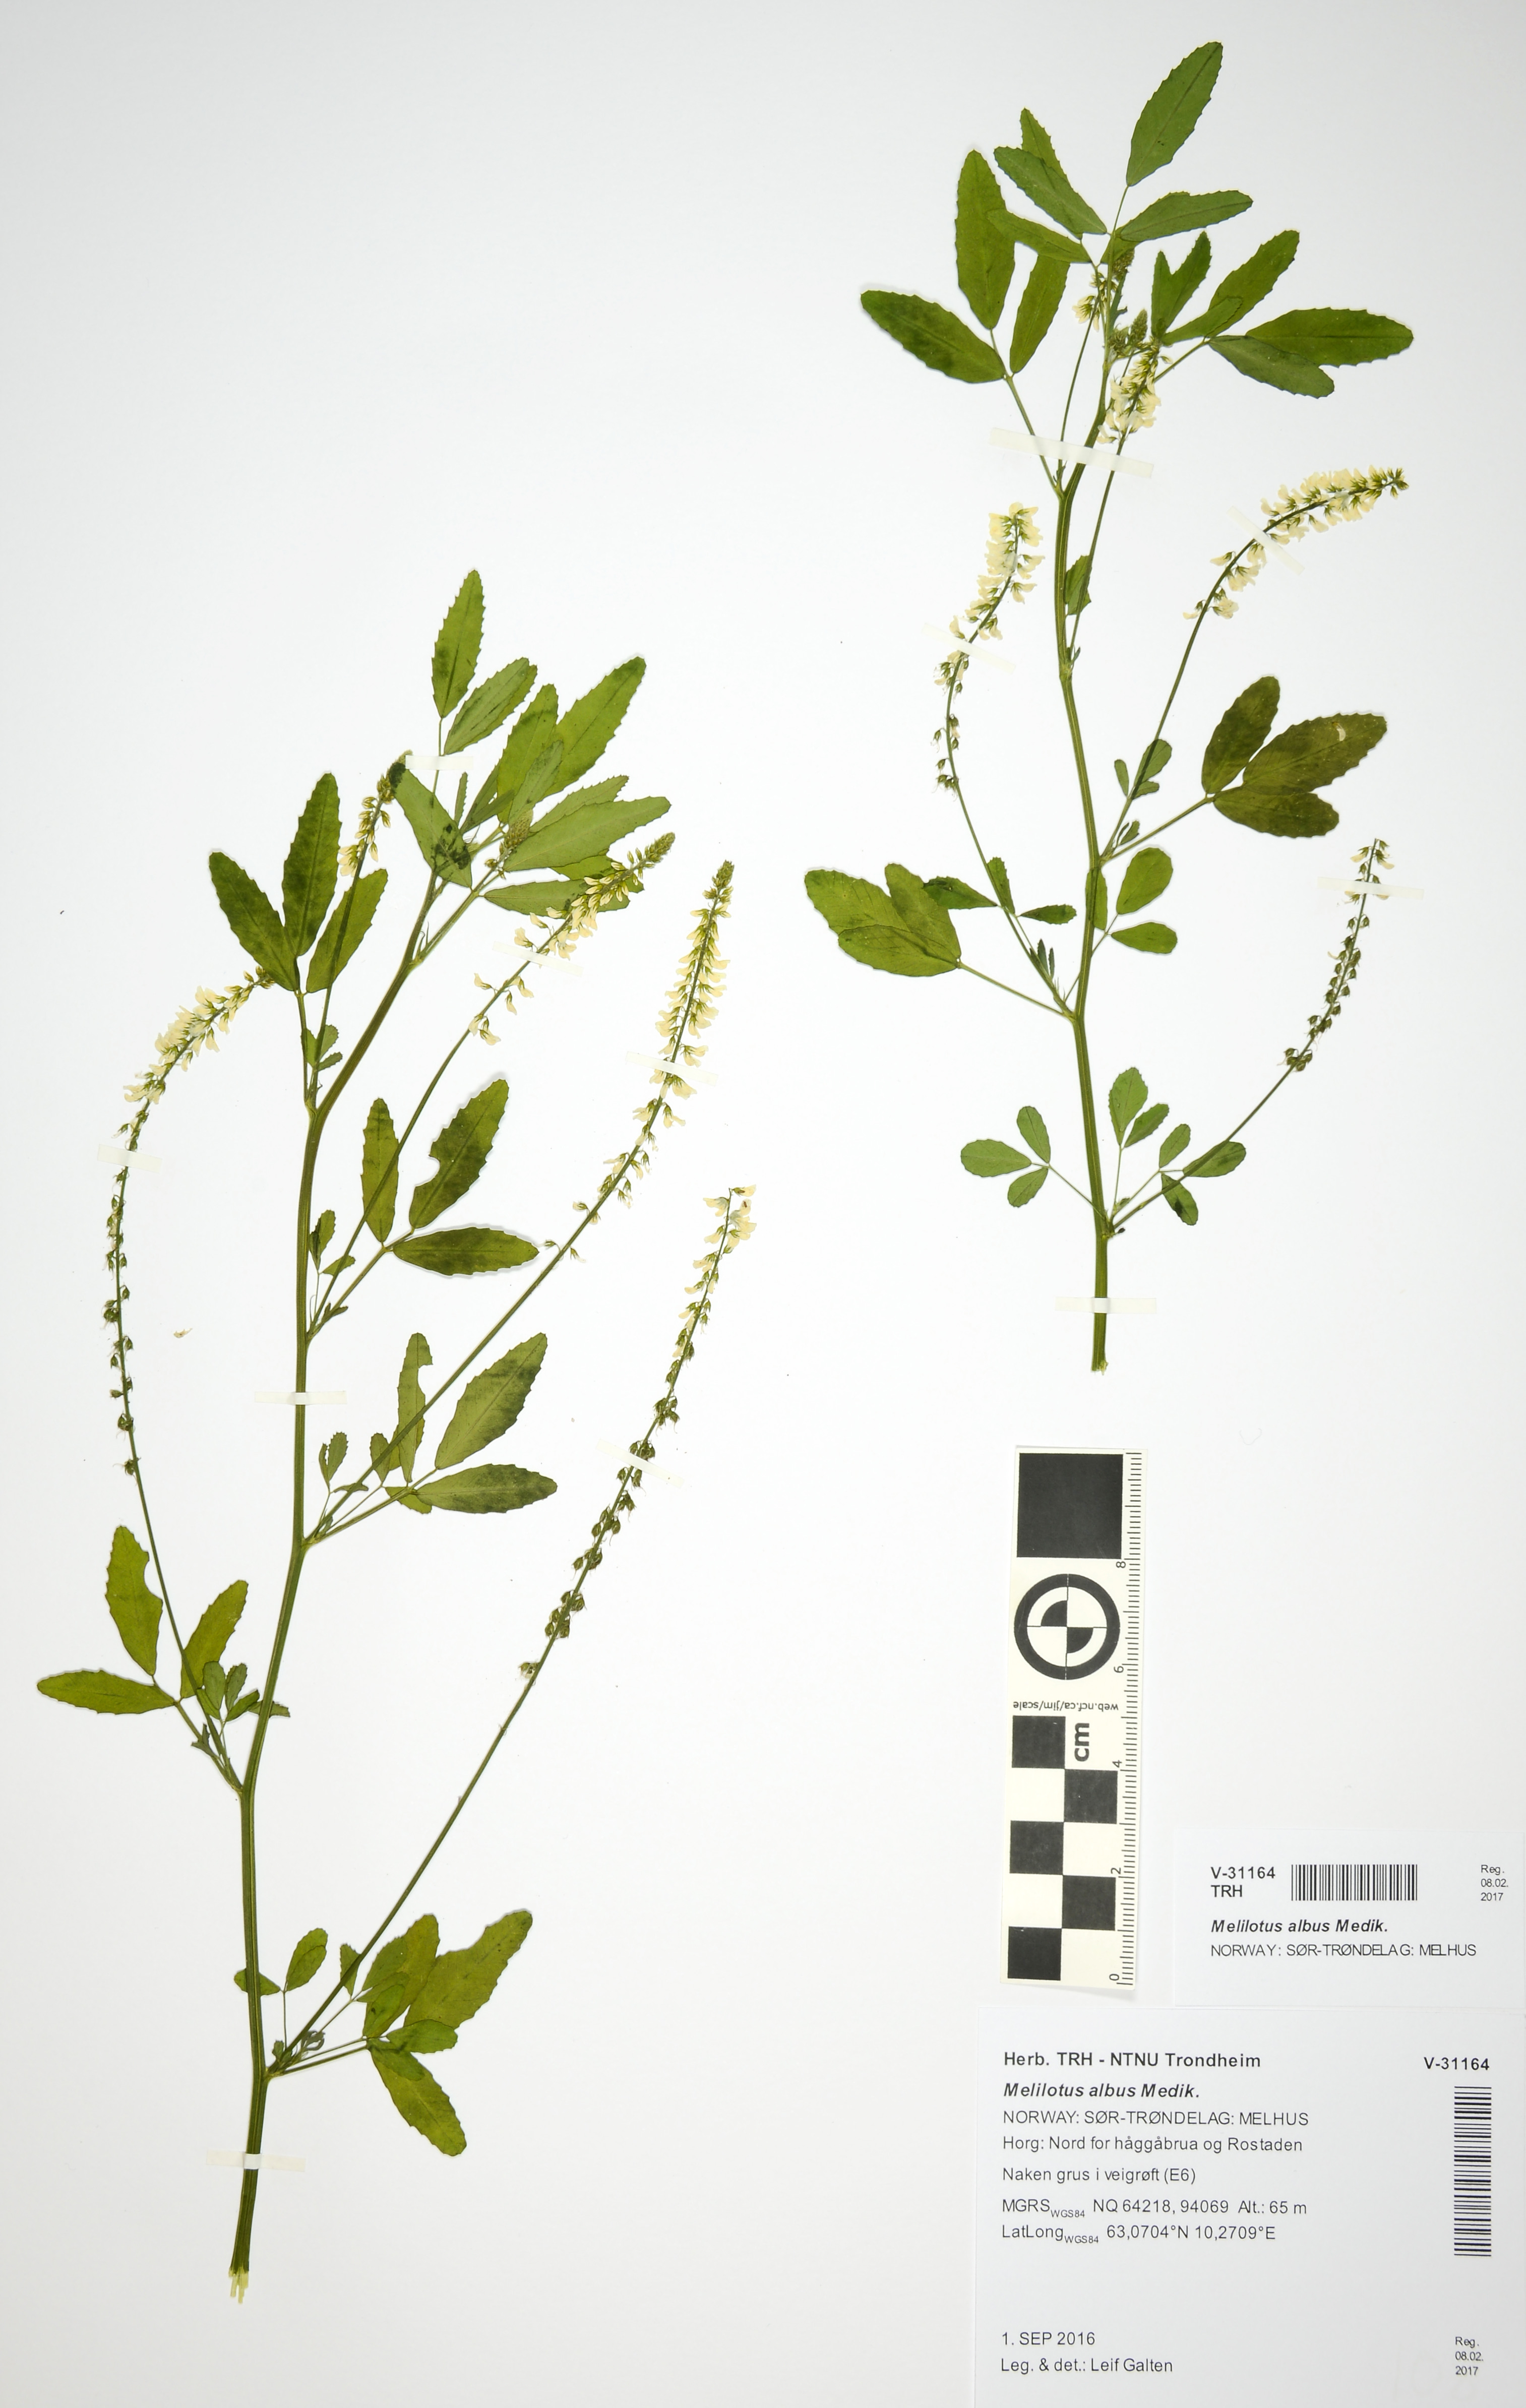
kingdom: Plantae
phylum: Tracheophyta
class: Magnoliopsida
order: Fabales
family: Fabaceae
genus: Melilotus
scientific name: Melilotus albus
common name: White melilot
